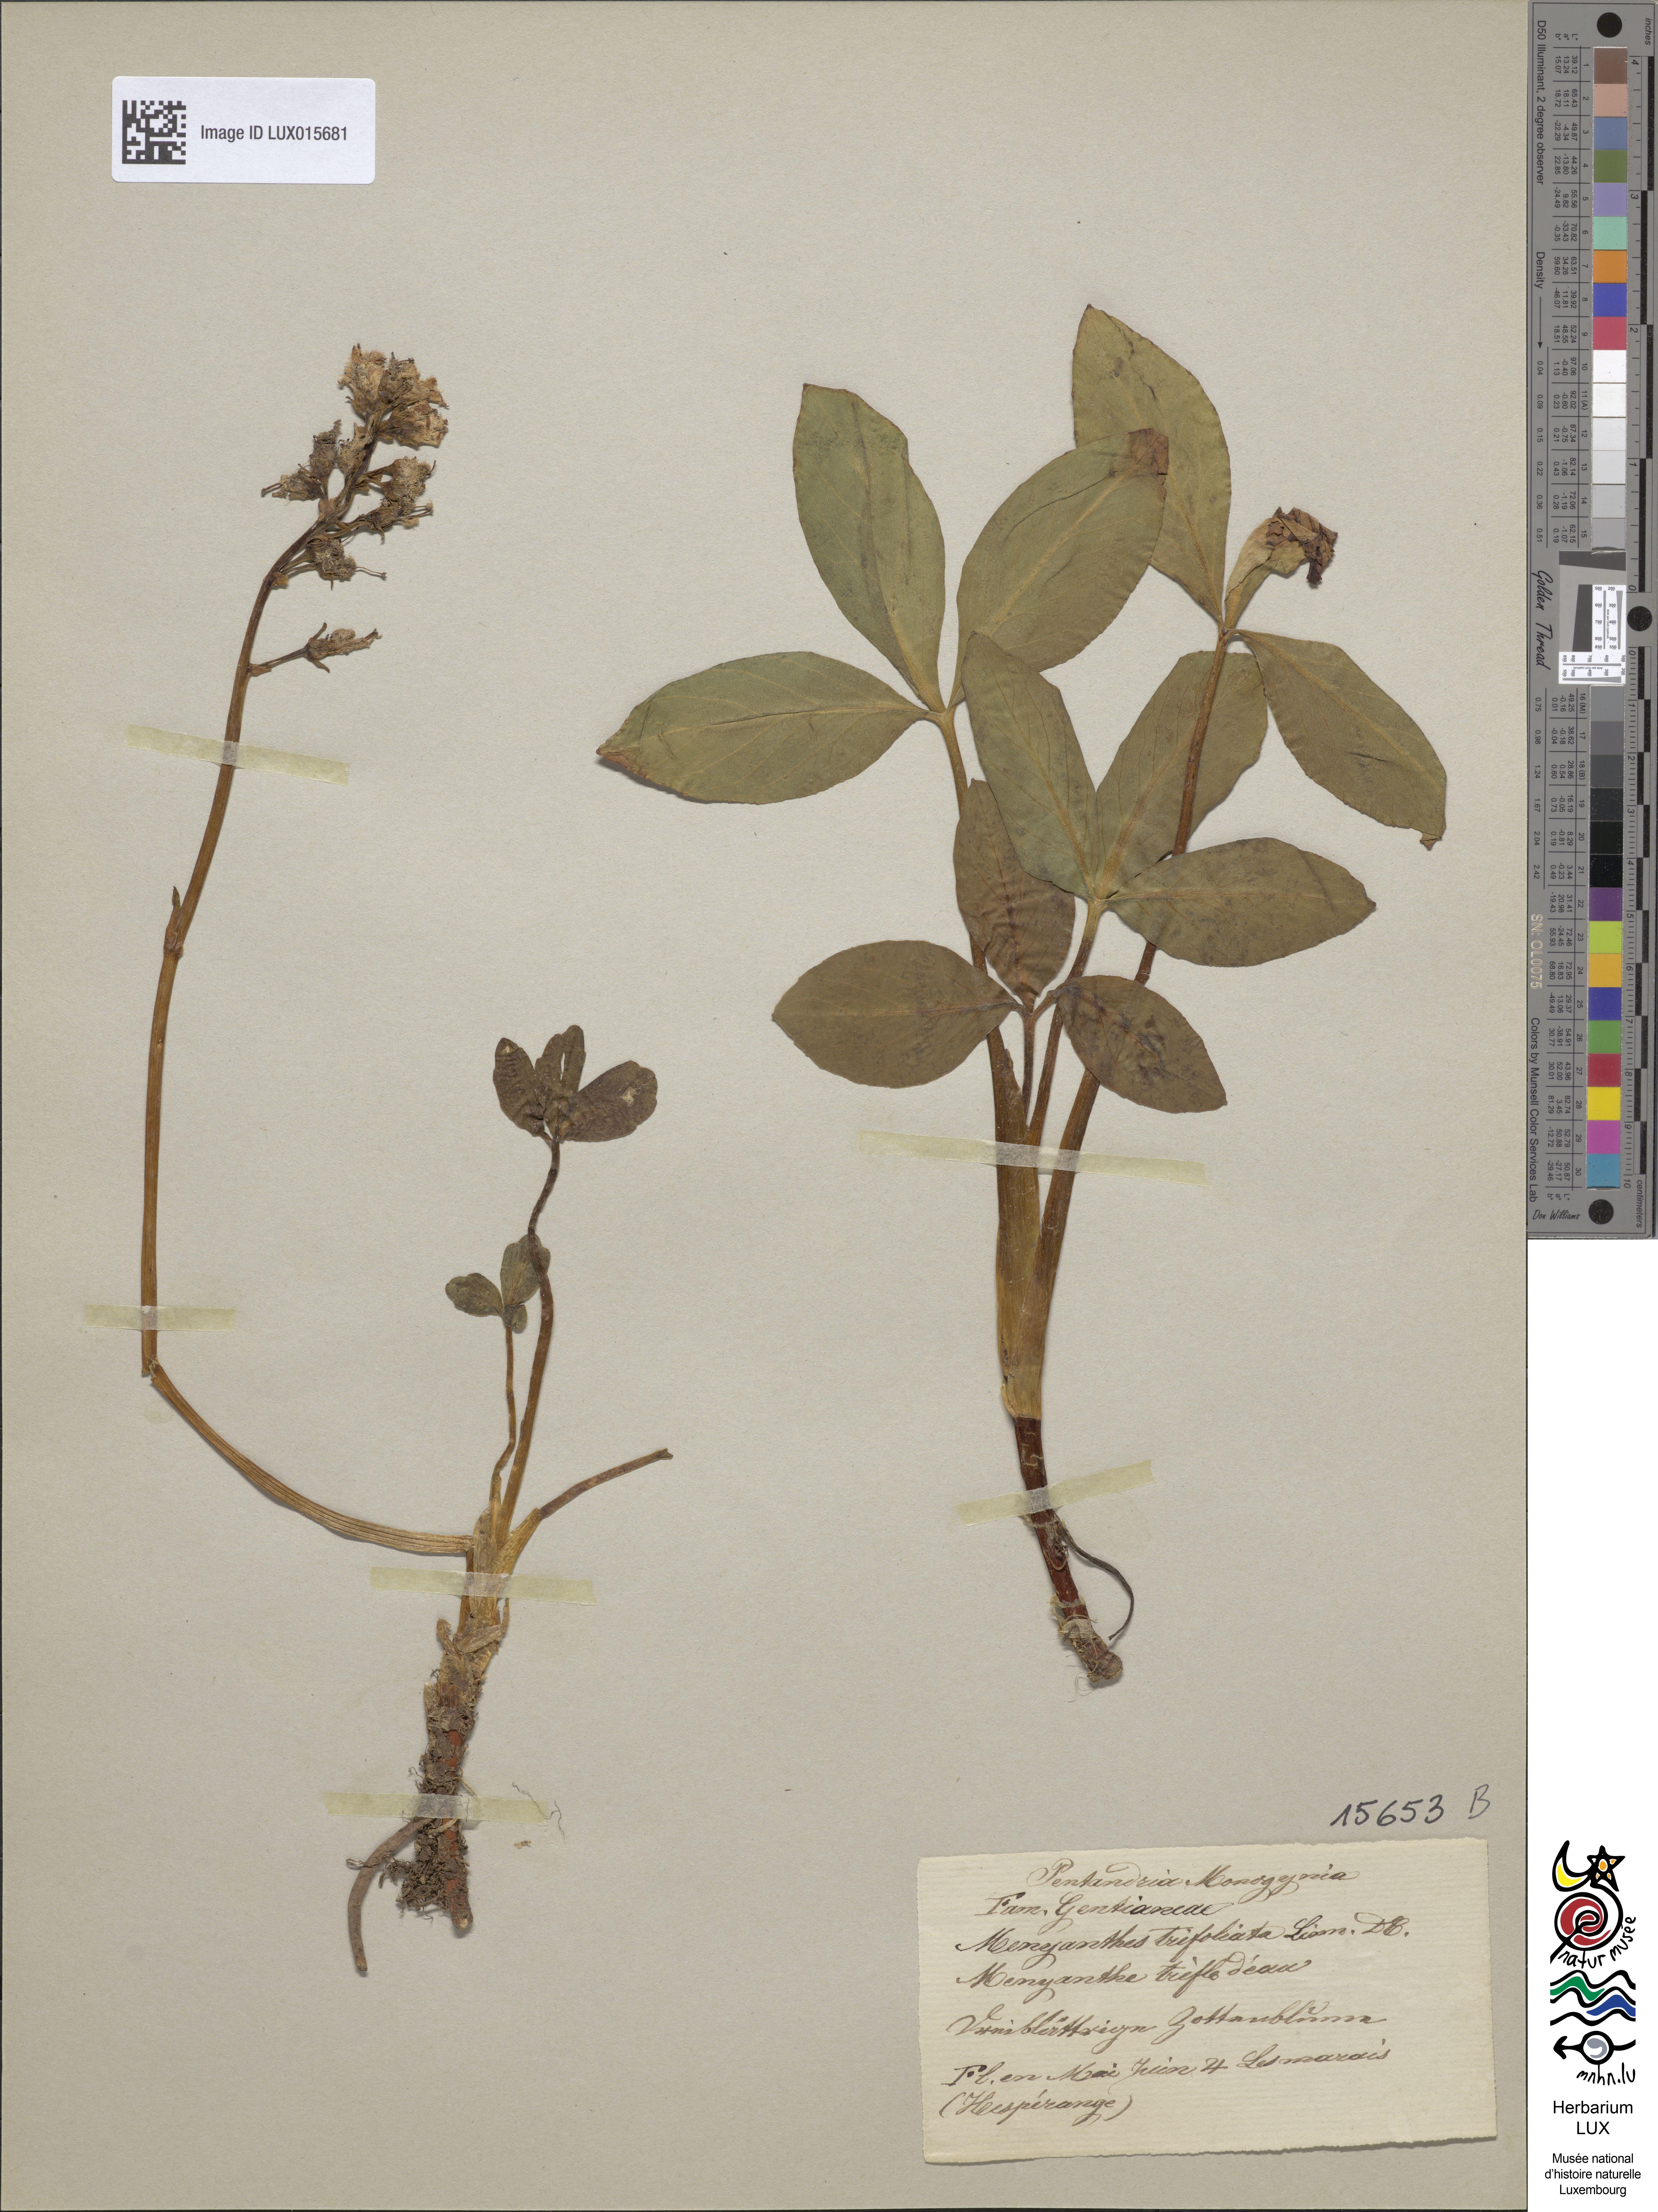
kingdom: Plantae
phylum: Tracheophyta
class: Magnoliopsida
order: Asterales
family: Menyanthaceae
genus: Menyanthes
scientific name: Menyanthes trifoliata
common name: Bogbean
